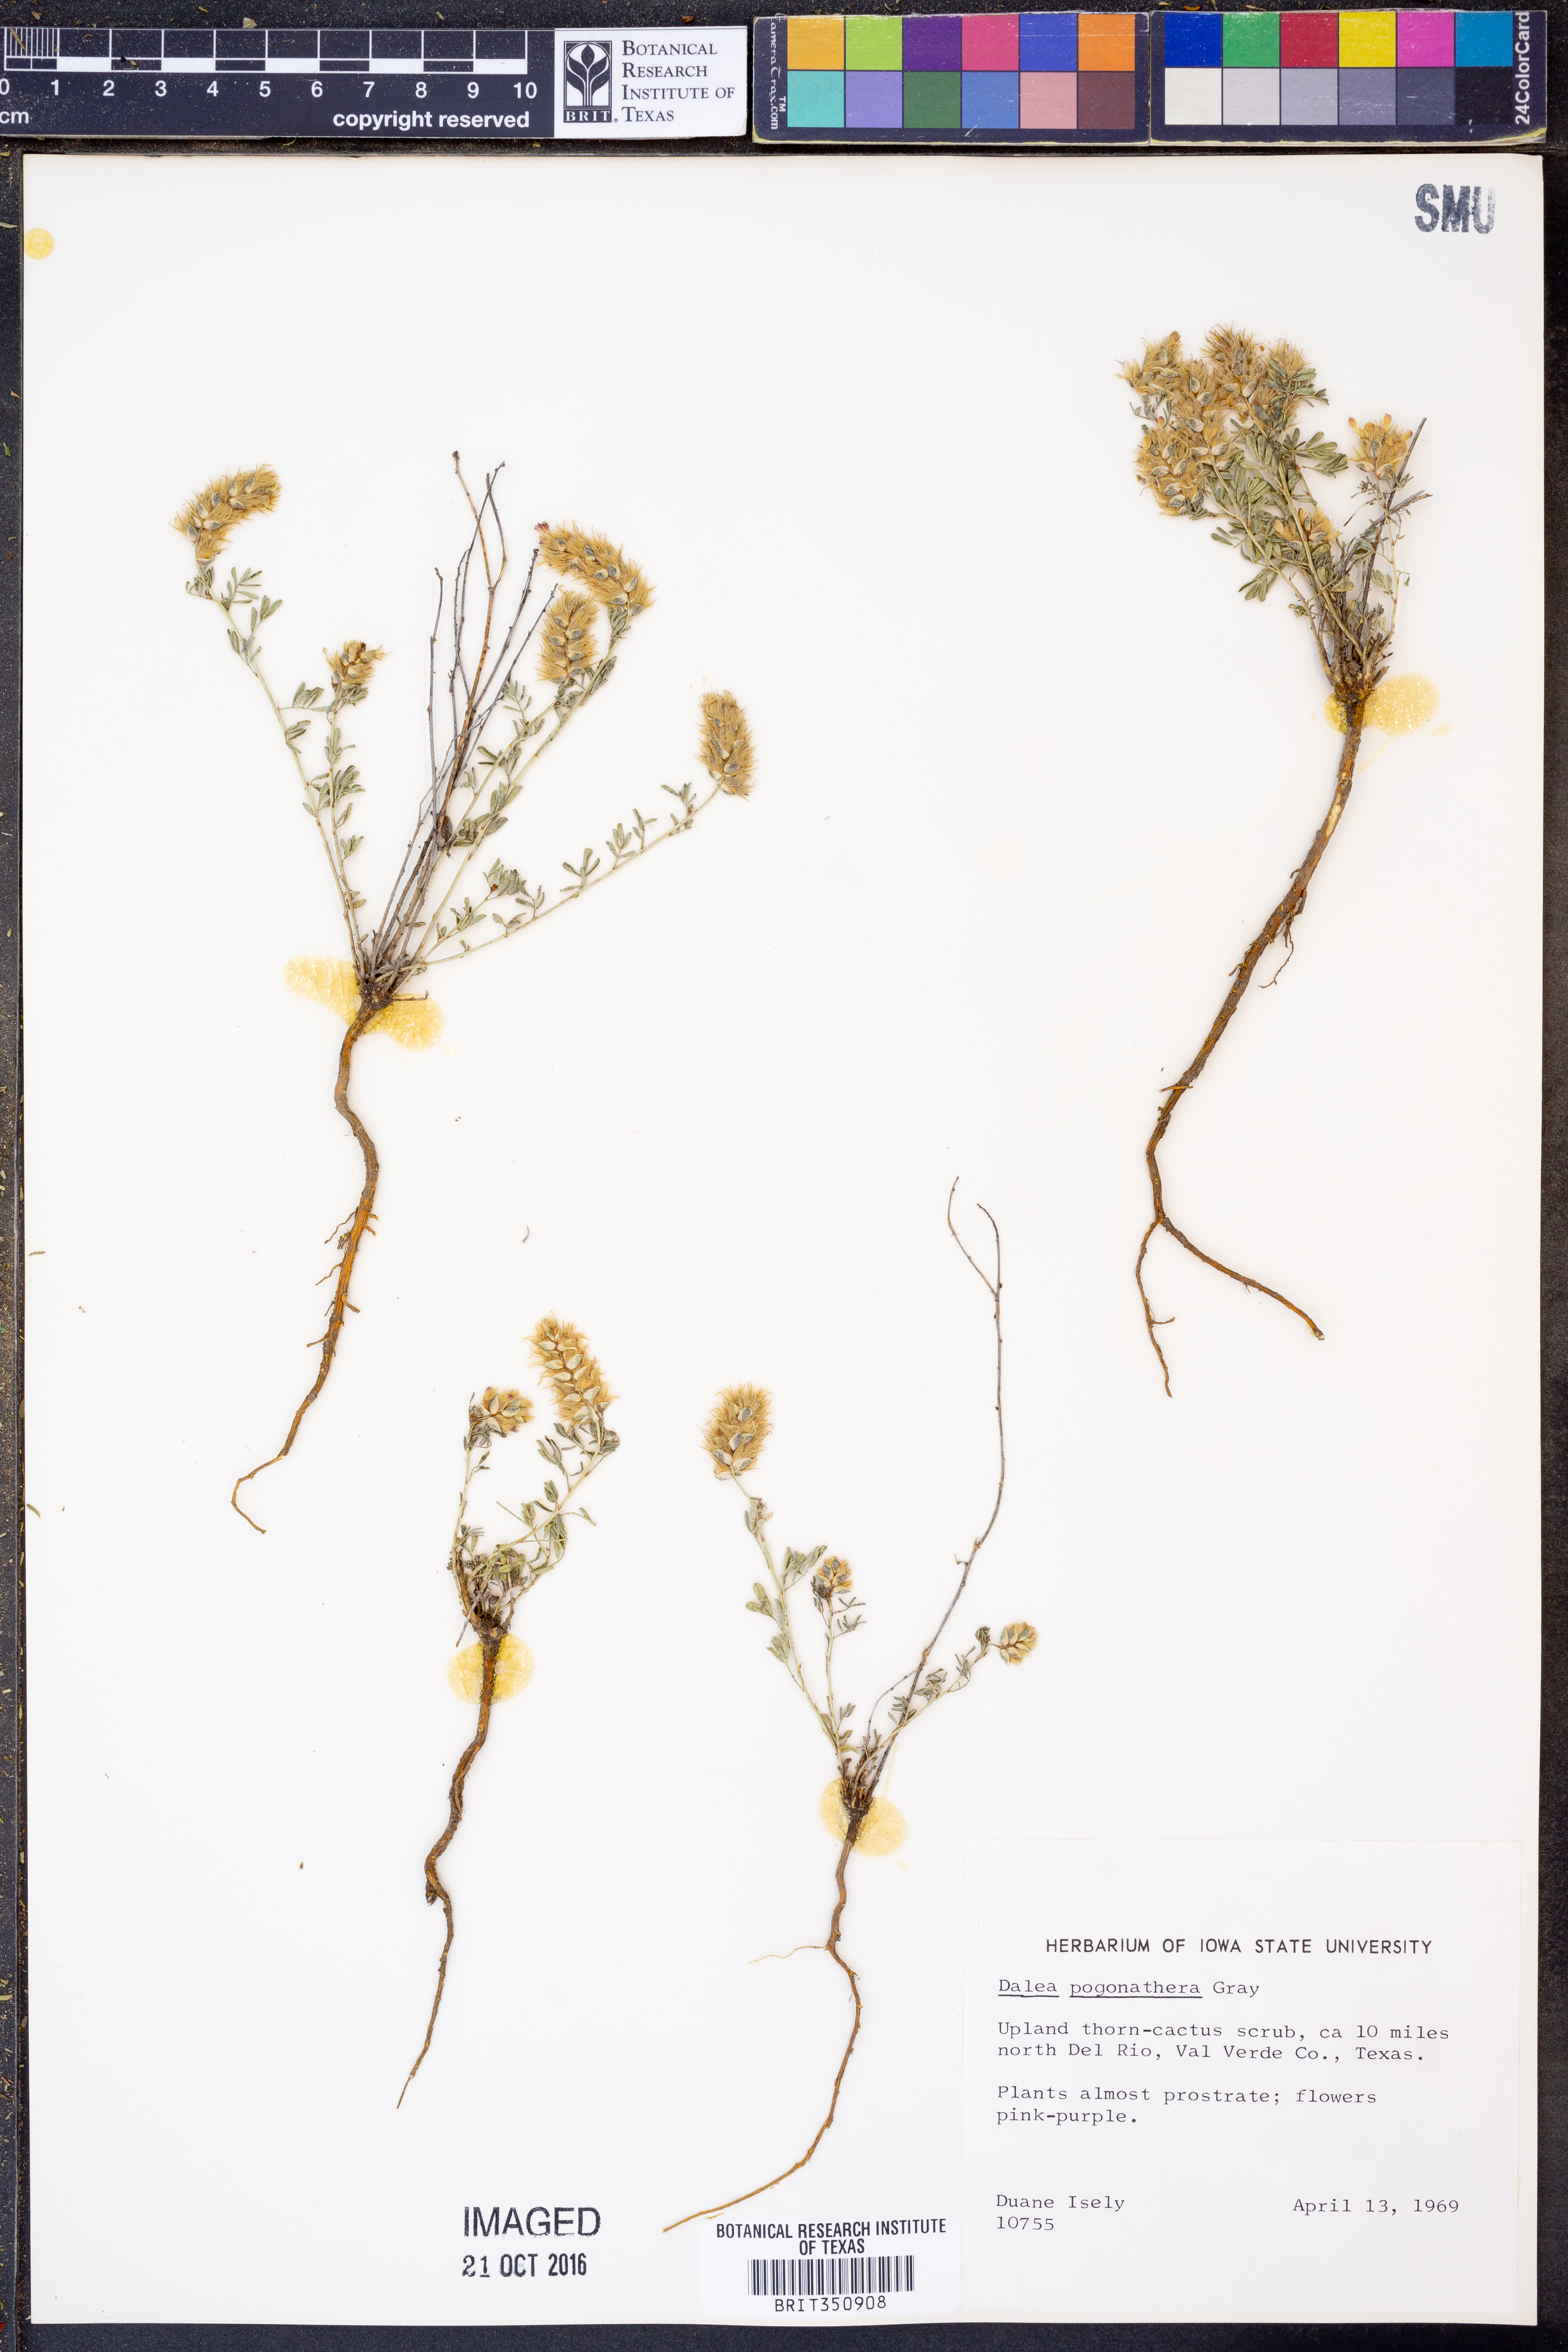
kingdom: Plantae
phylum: Tracheophyta
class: Magnoliopsida
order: Fabales
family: Fabaceae
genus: Dalea
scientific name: Dalea pogonathera
